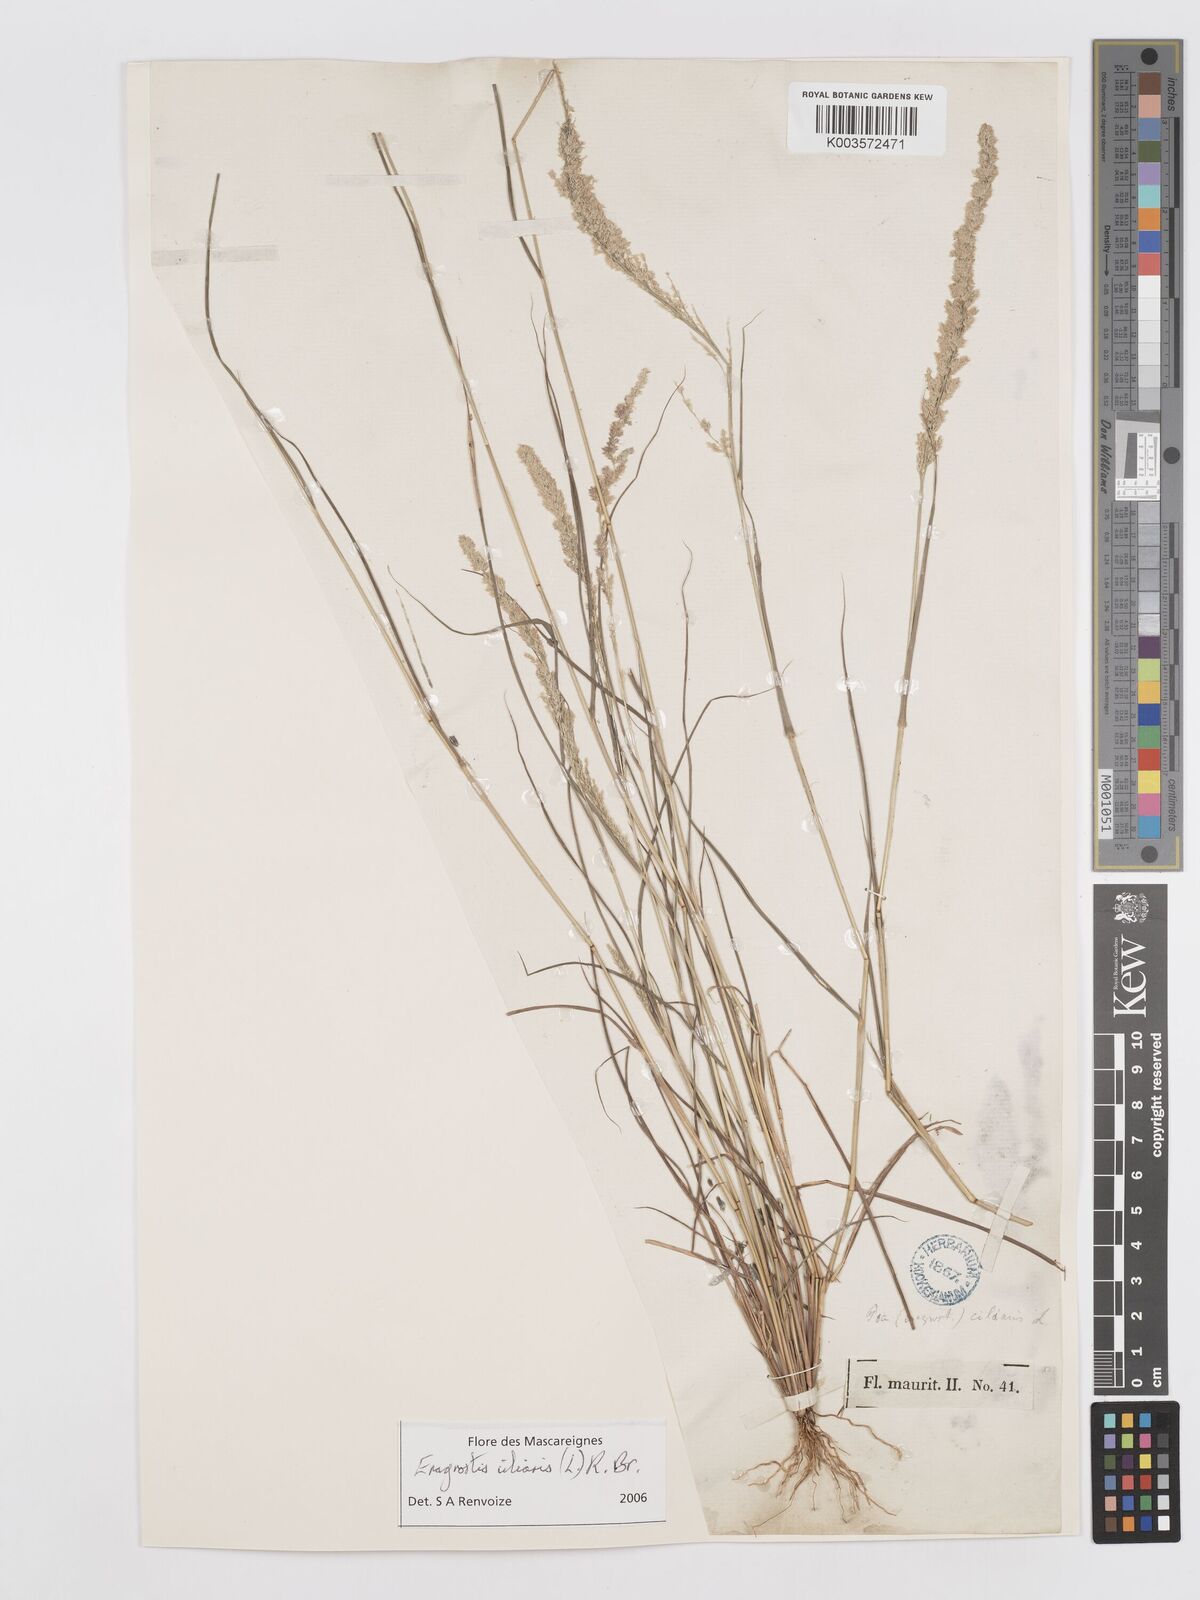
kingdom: Plantae
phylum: Tracheophyta
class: Liliopsida
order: Poales
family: Poaceae
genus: Eragrostis
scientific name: Eragrostis ciliaris
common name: Gophertail lovegrass
